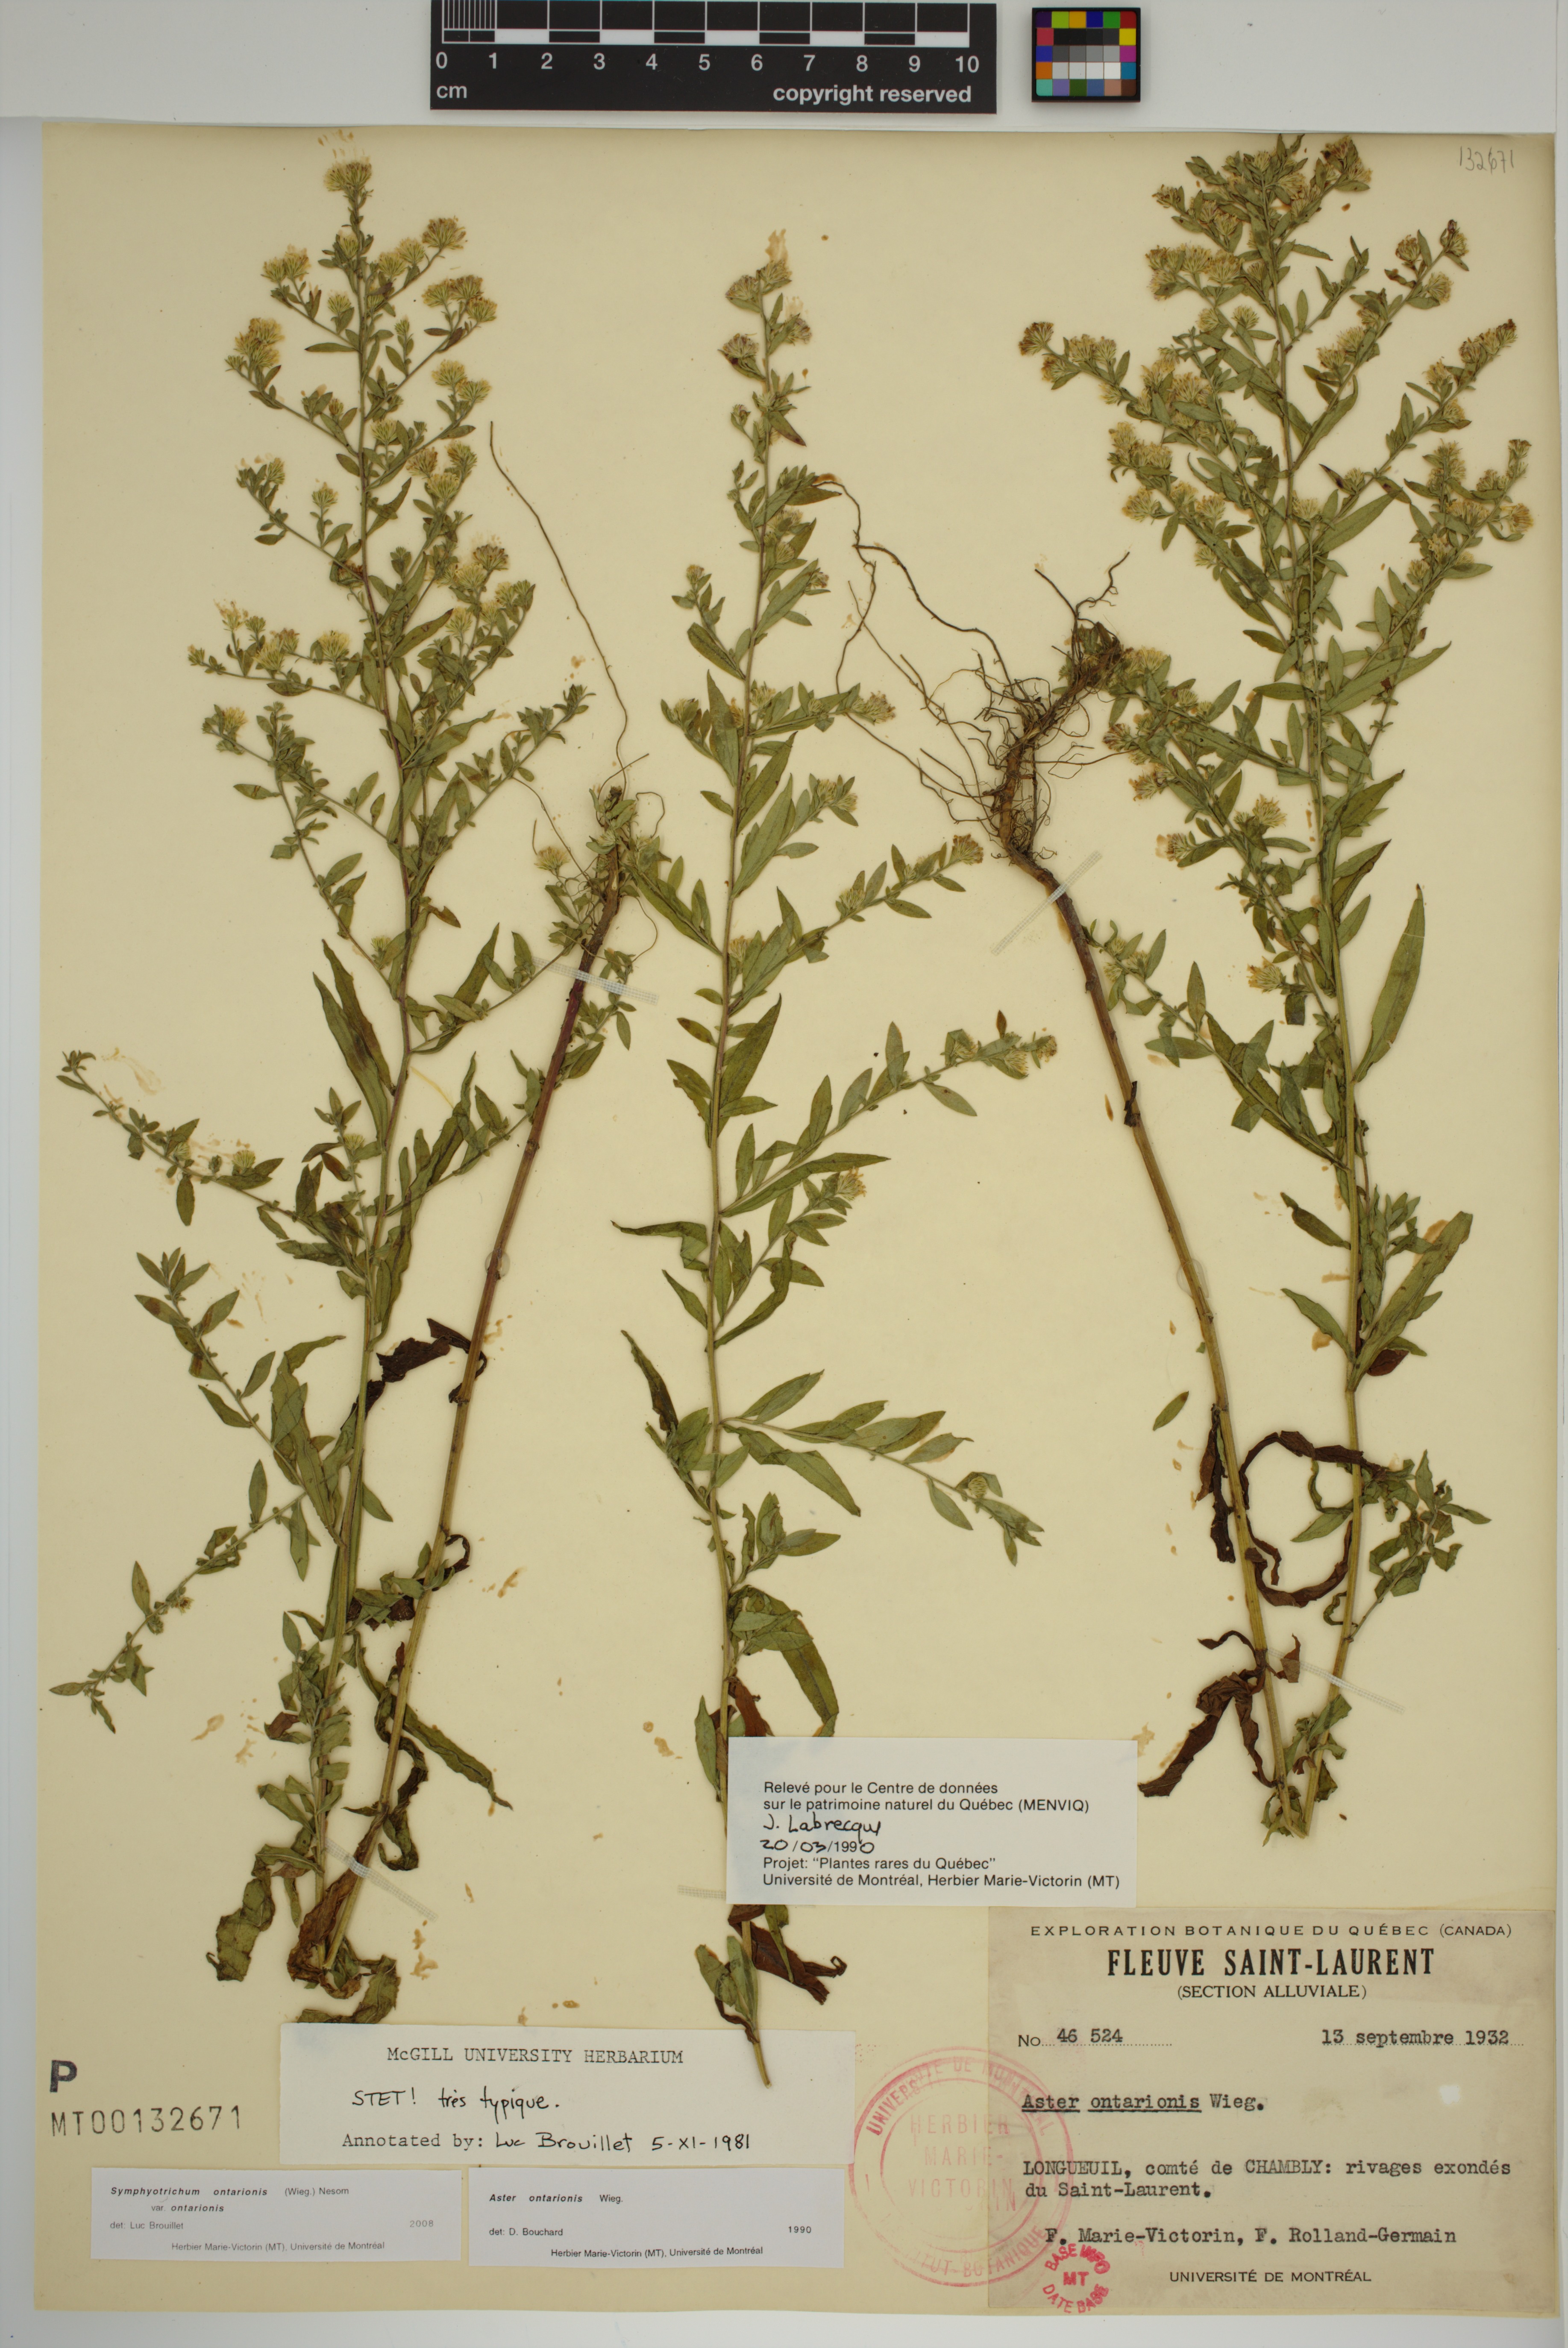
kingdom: Plantae
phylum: Tracheophyta
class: Magnoliopsida
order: Asterales
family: Asteraceae
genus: Symphyotrichum
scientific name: Symphyotrichum ontarionis
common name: Bottomland aster
